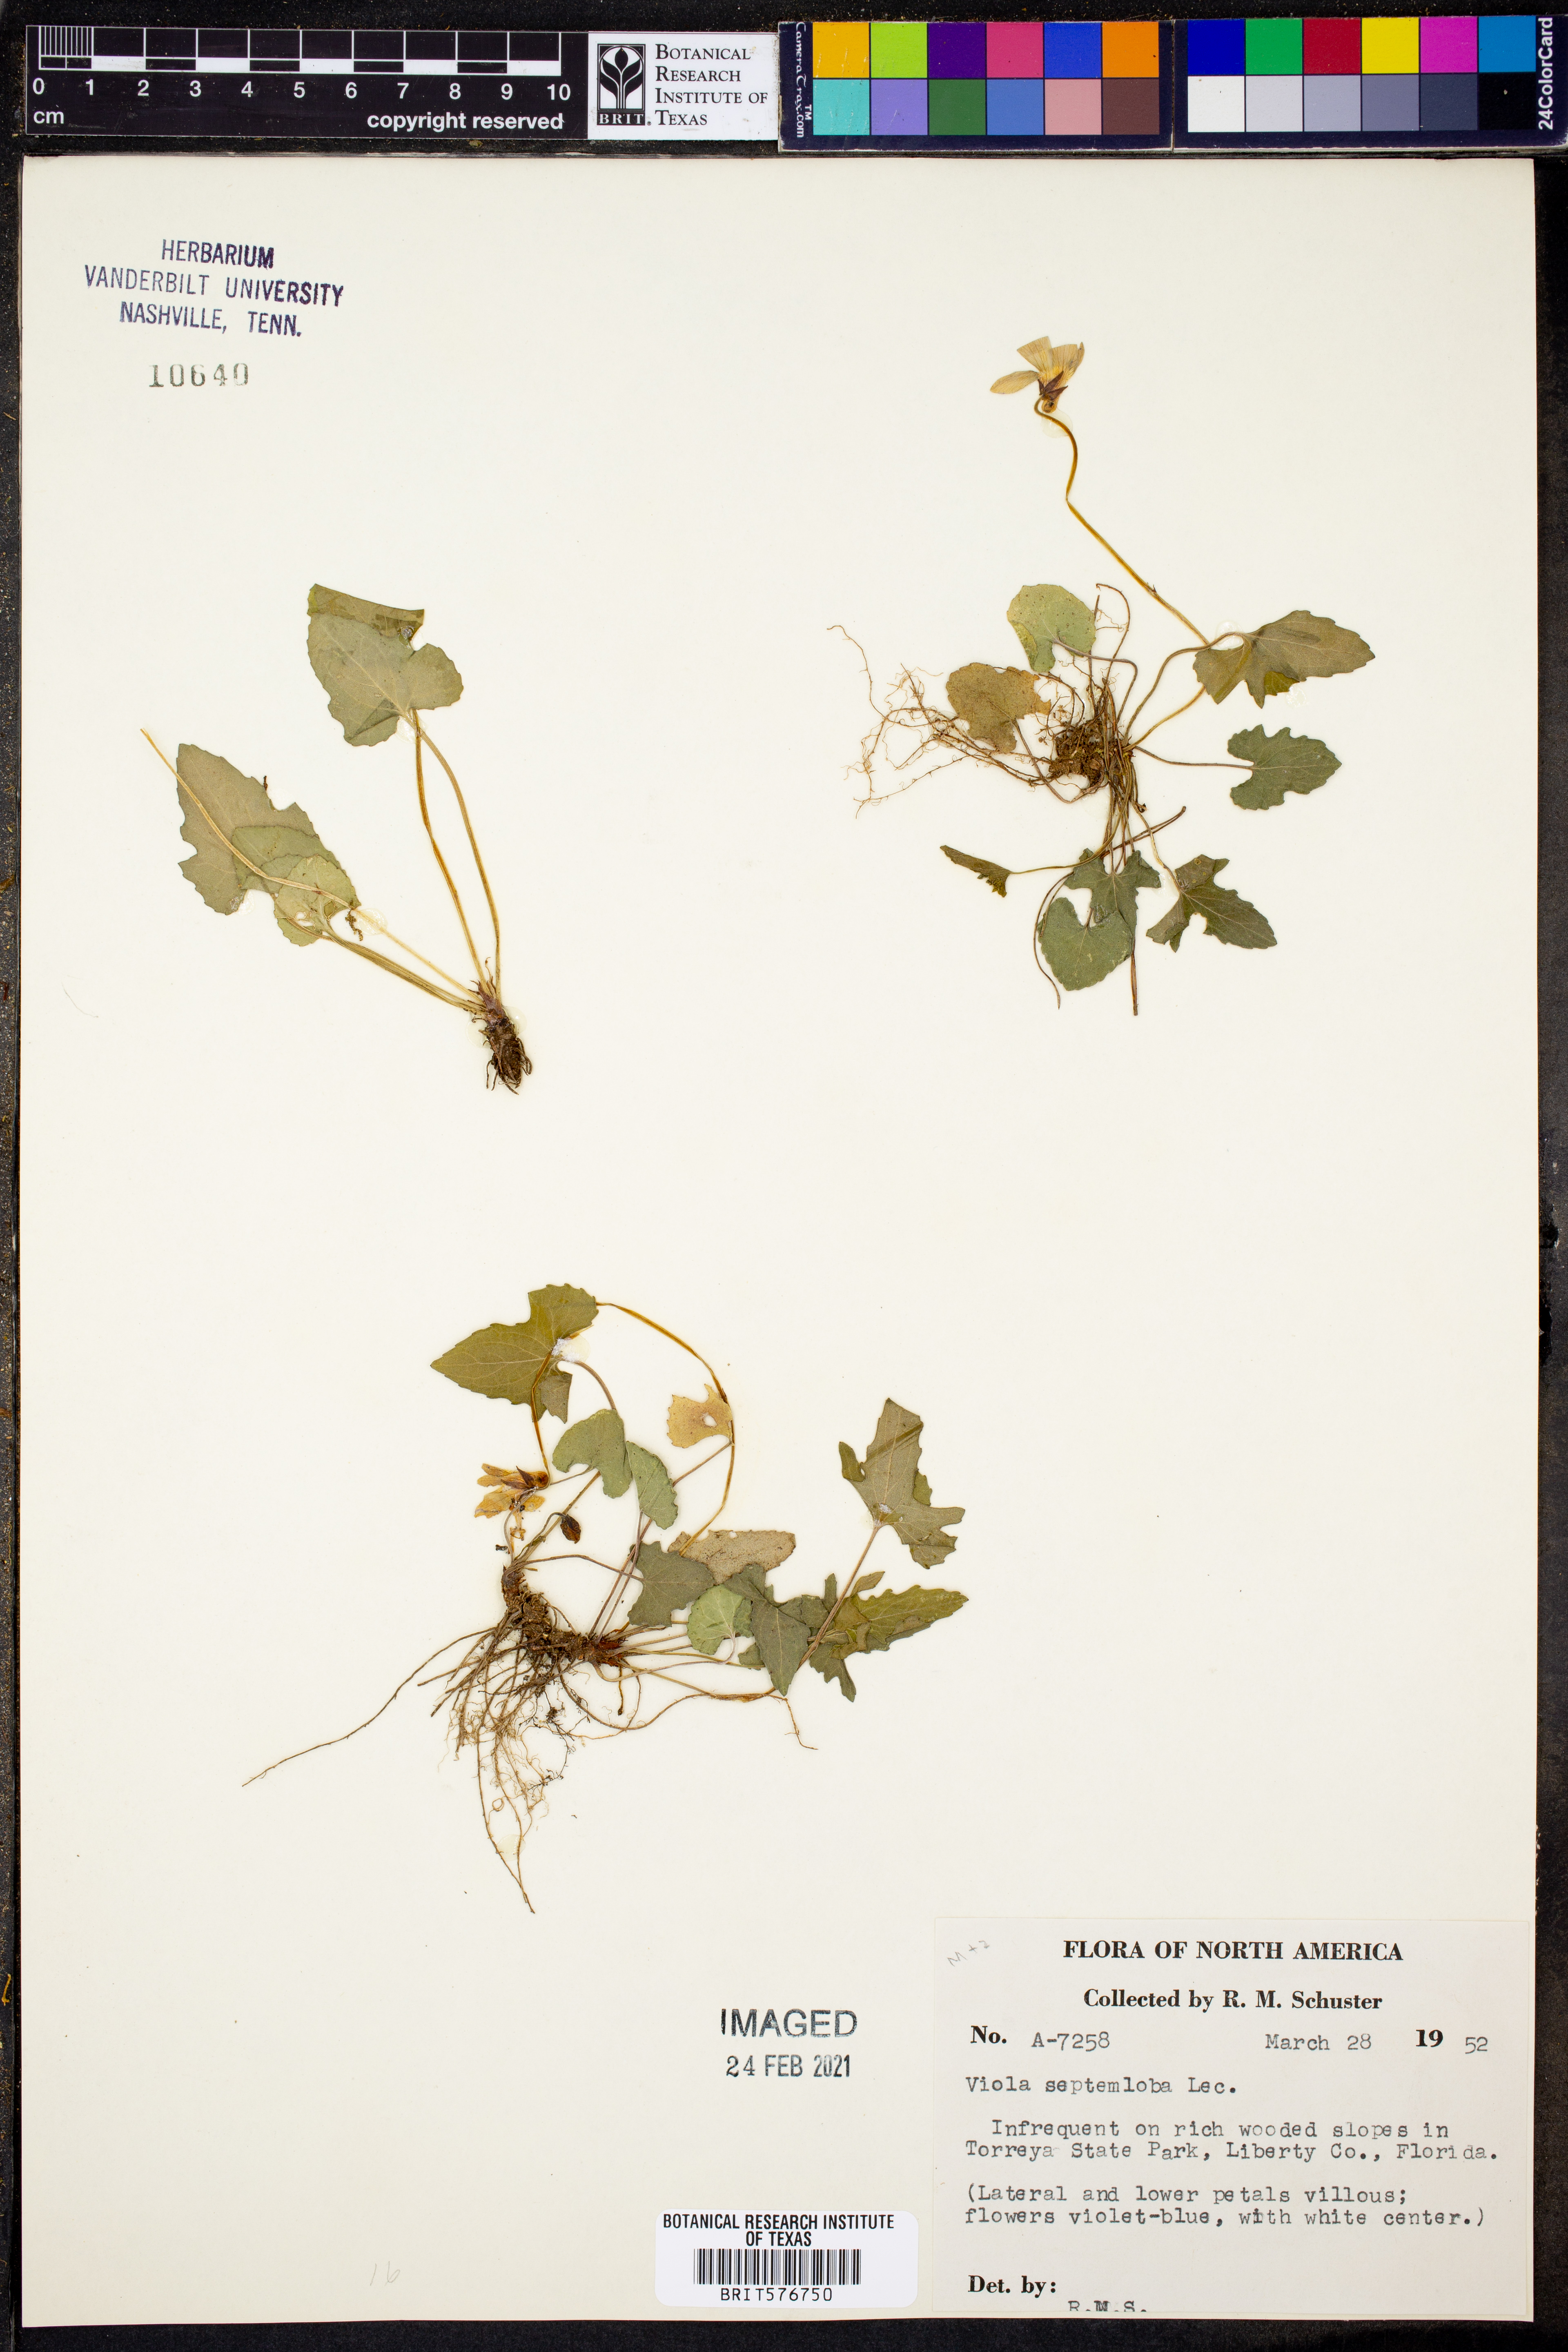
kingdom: Plantae
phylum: Tracheophyta
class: Magnoliopsida
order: Malpighiales
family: Violaceae
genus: Viola
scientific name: Viola septemloba
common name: Southern coast violet
